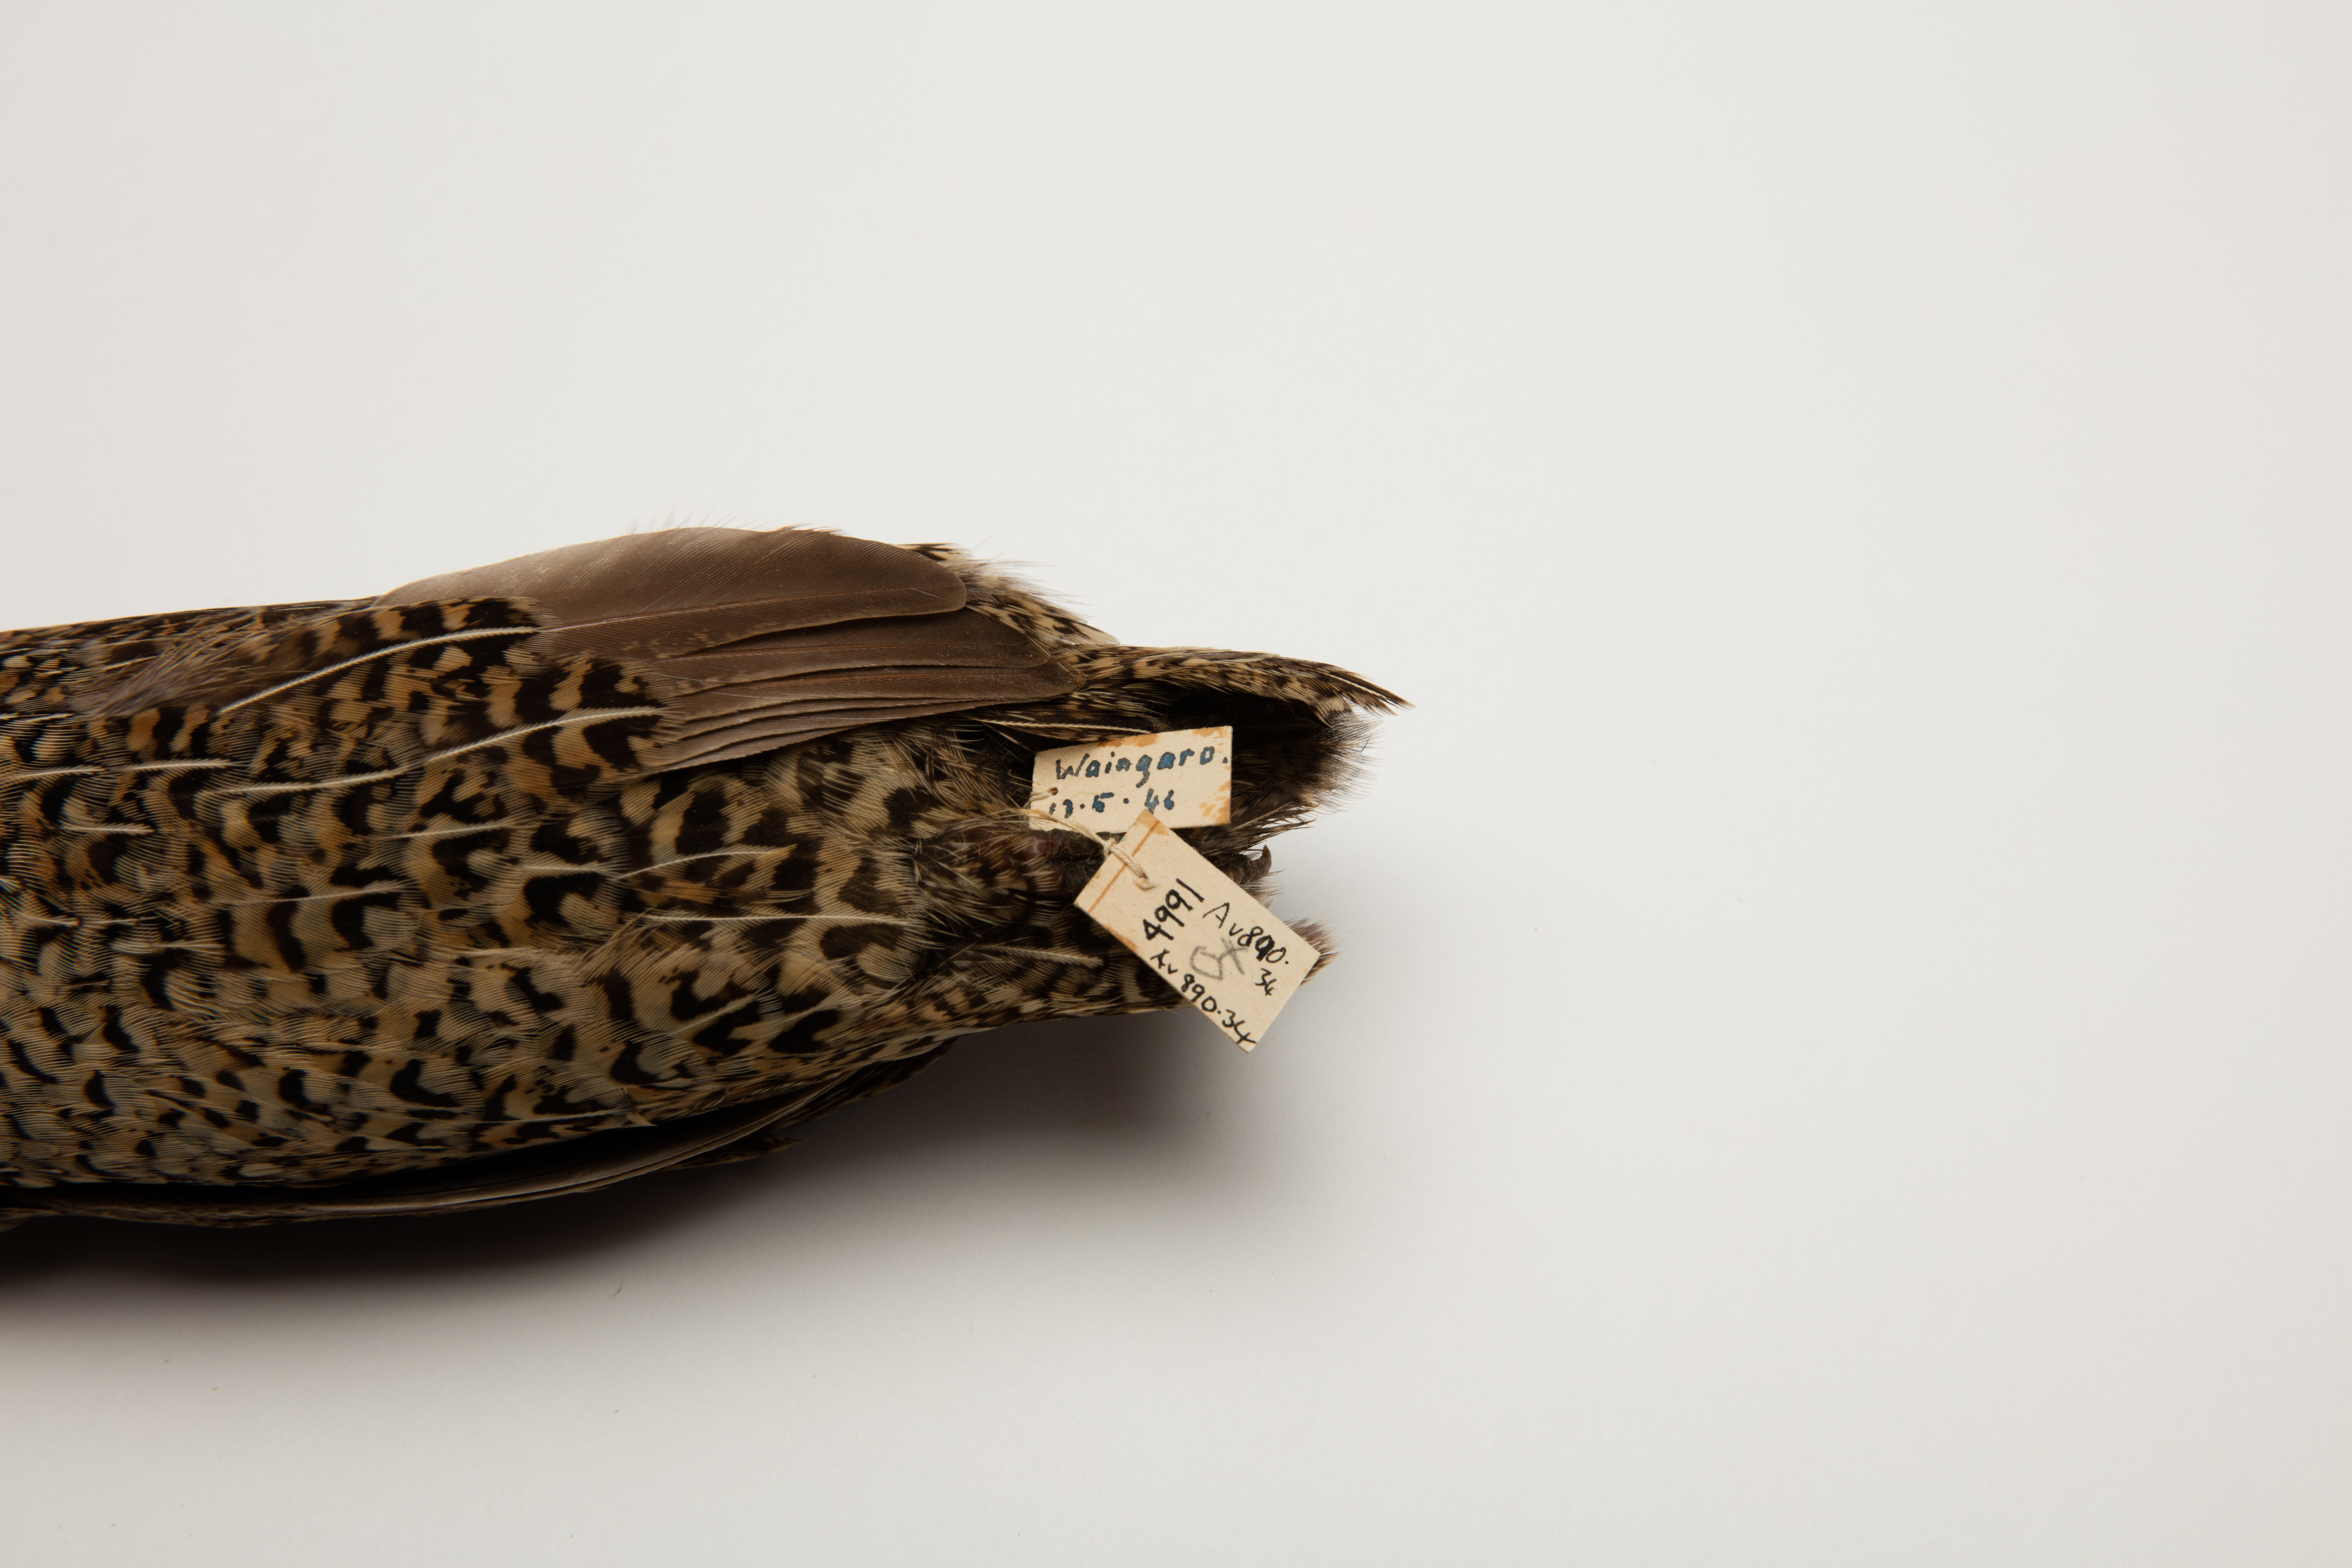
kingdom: Animalia
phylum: Chordata
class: Aves
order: Galliformes
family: Phasianidae
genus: Synoicus
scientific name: Synoicus ypsilophorus
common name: Brown quail
